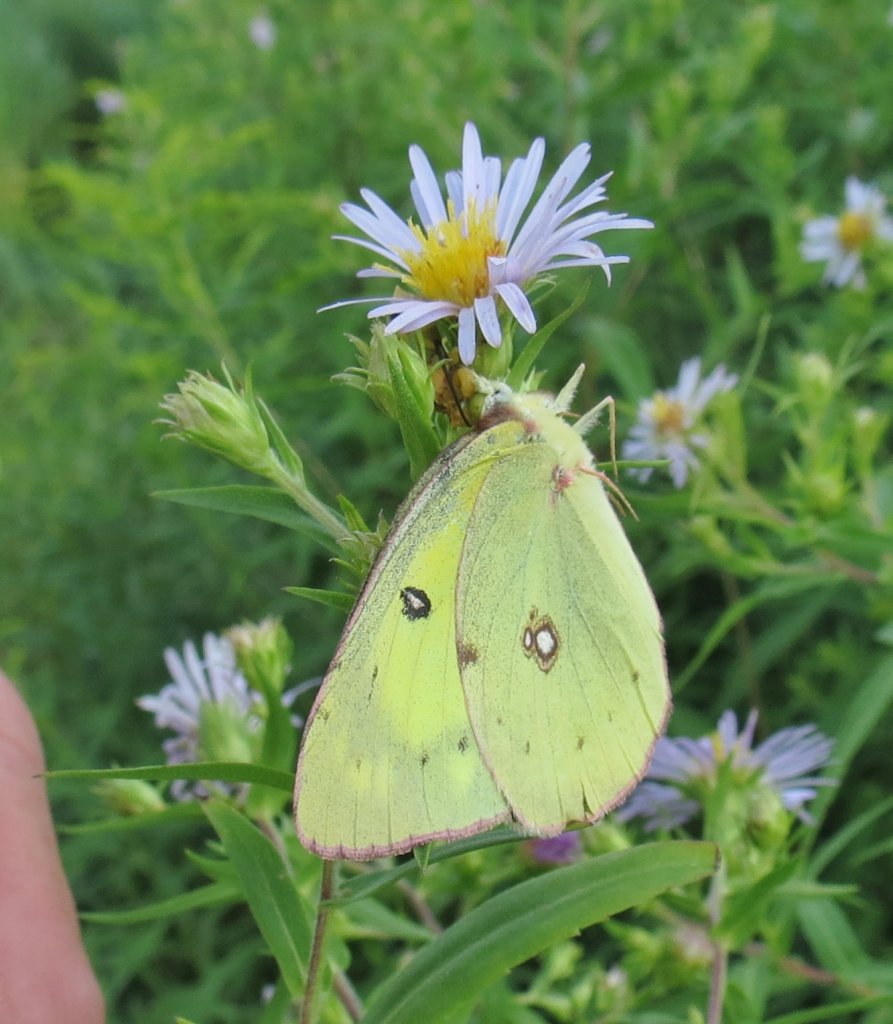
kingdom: Animalia
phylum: Arthropoda
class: Insecta
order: Lepidoptera
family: Pieridae
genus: Colias
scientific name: Colias philodice
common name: Clouded Sulphur
